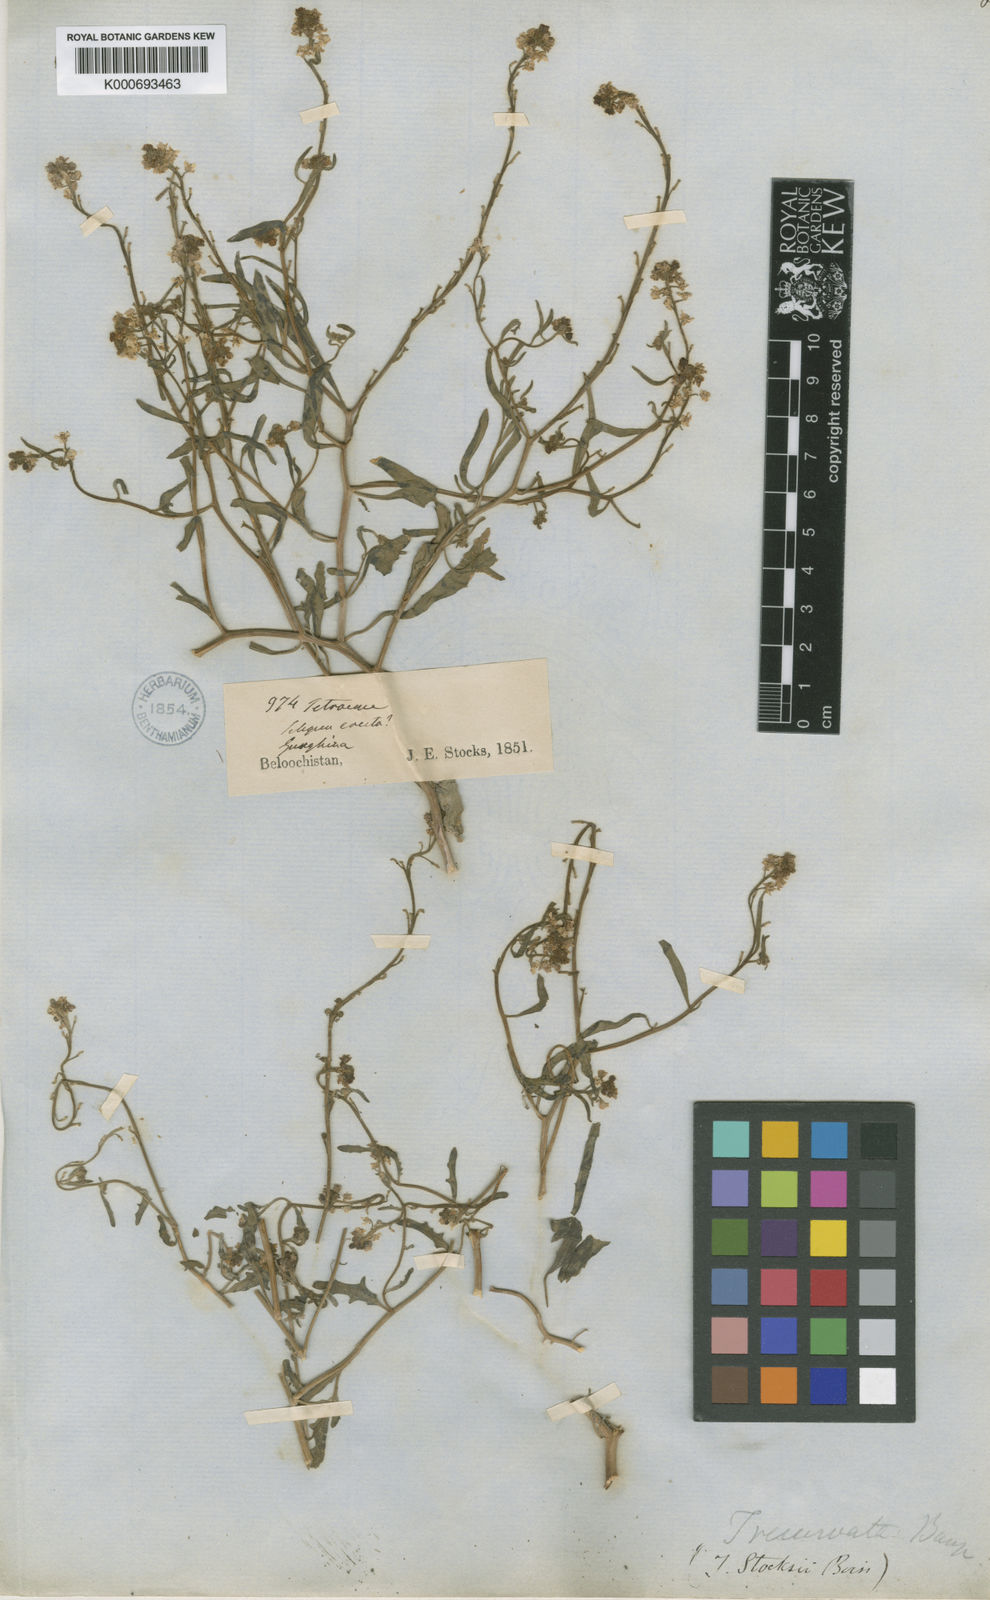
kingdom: Plantae
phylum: Tracheophyta
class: Magnoliopsida
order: Brassicales
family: Brassicaceae
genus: Tetracme
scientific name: Tetracme stocksii
